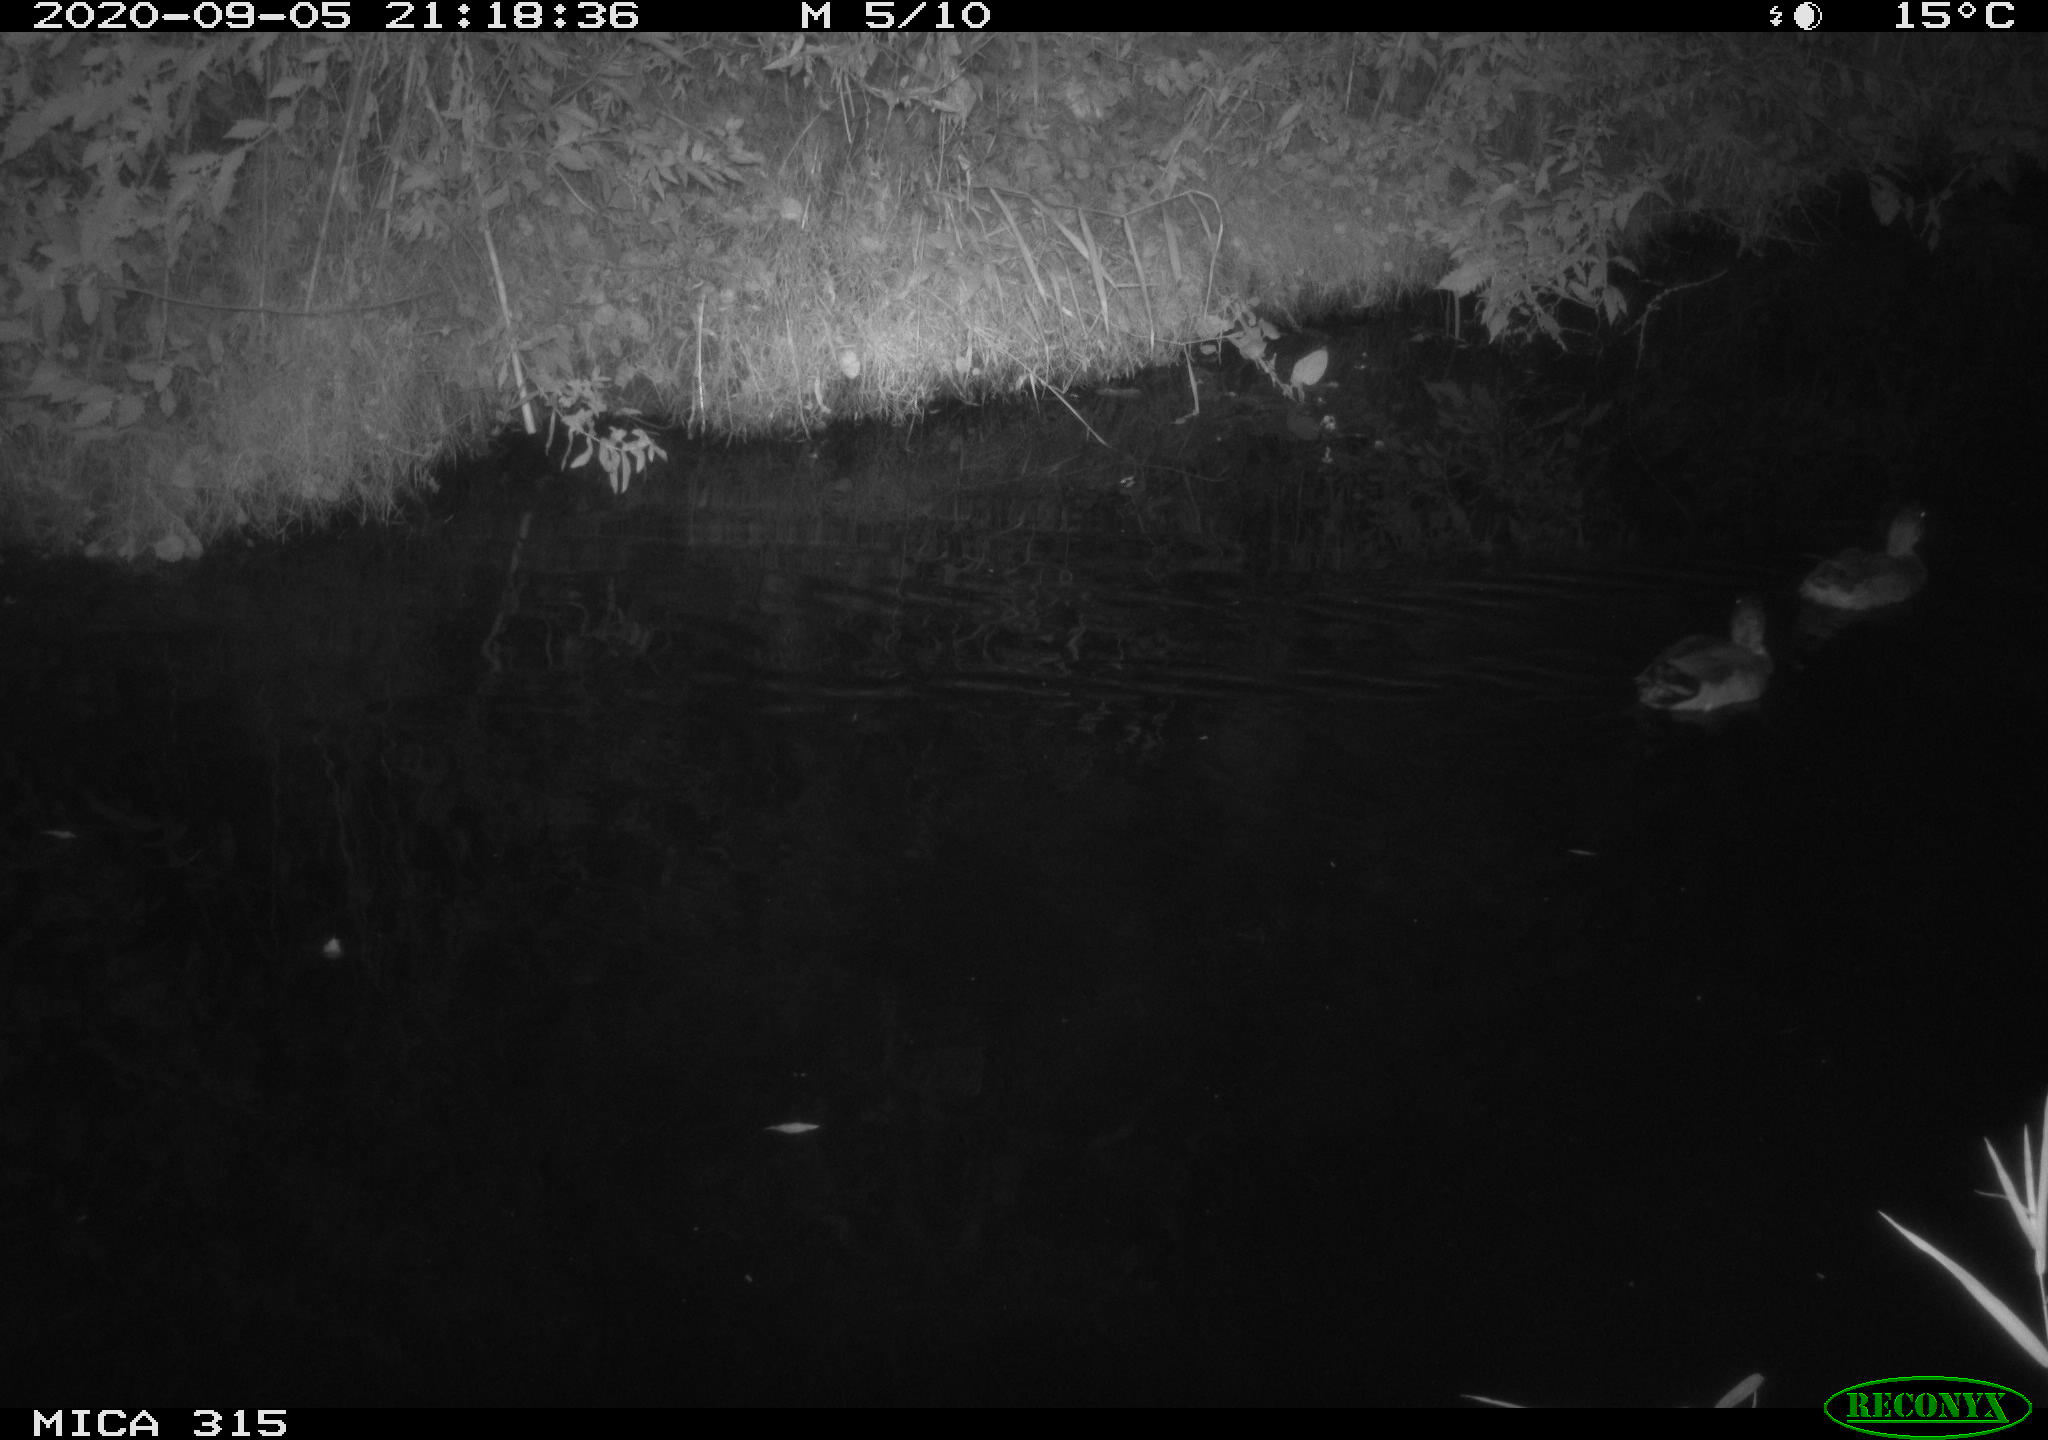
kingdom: Animalia
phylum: Chordata
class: Aves
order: Anseriformes
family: Anatidae
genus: Anas
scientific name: Anas platyrhynchos
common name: Mallard
